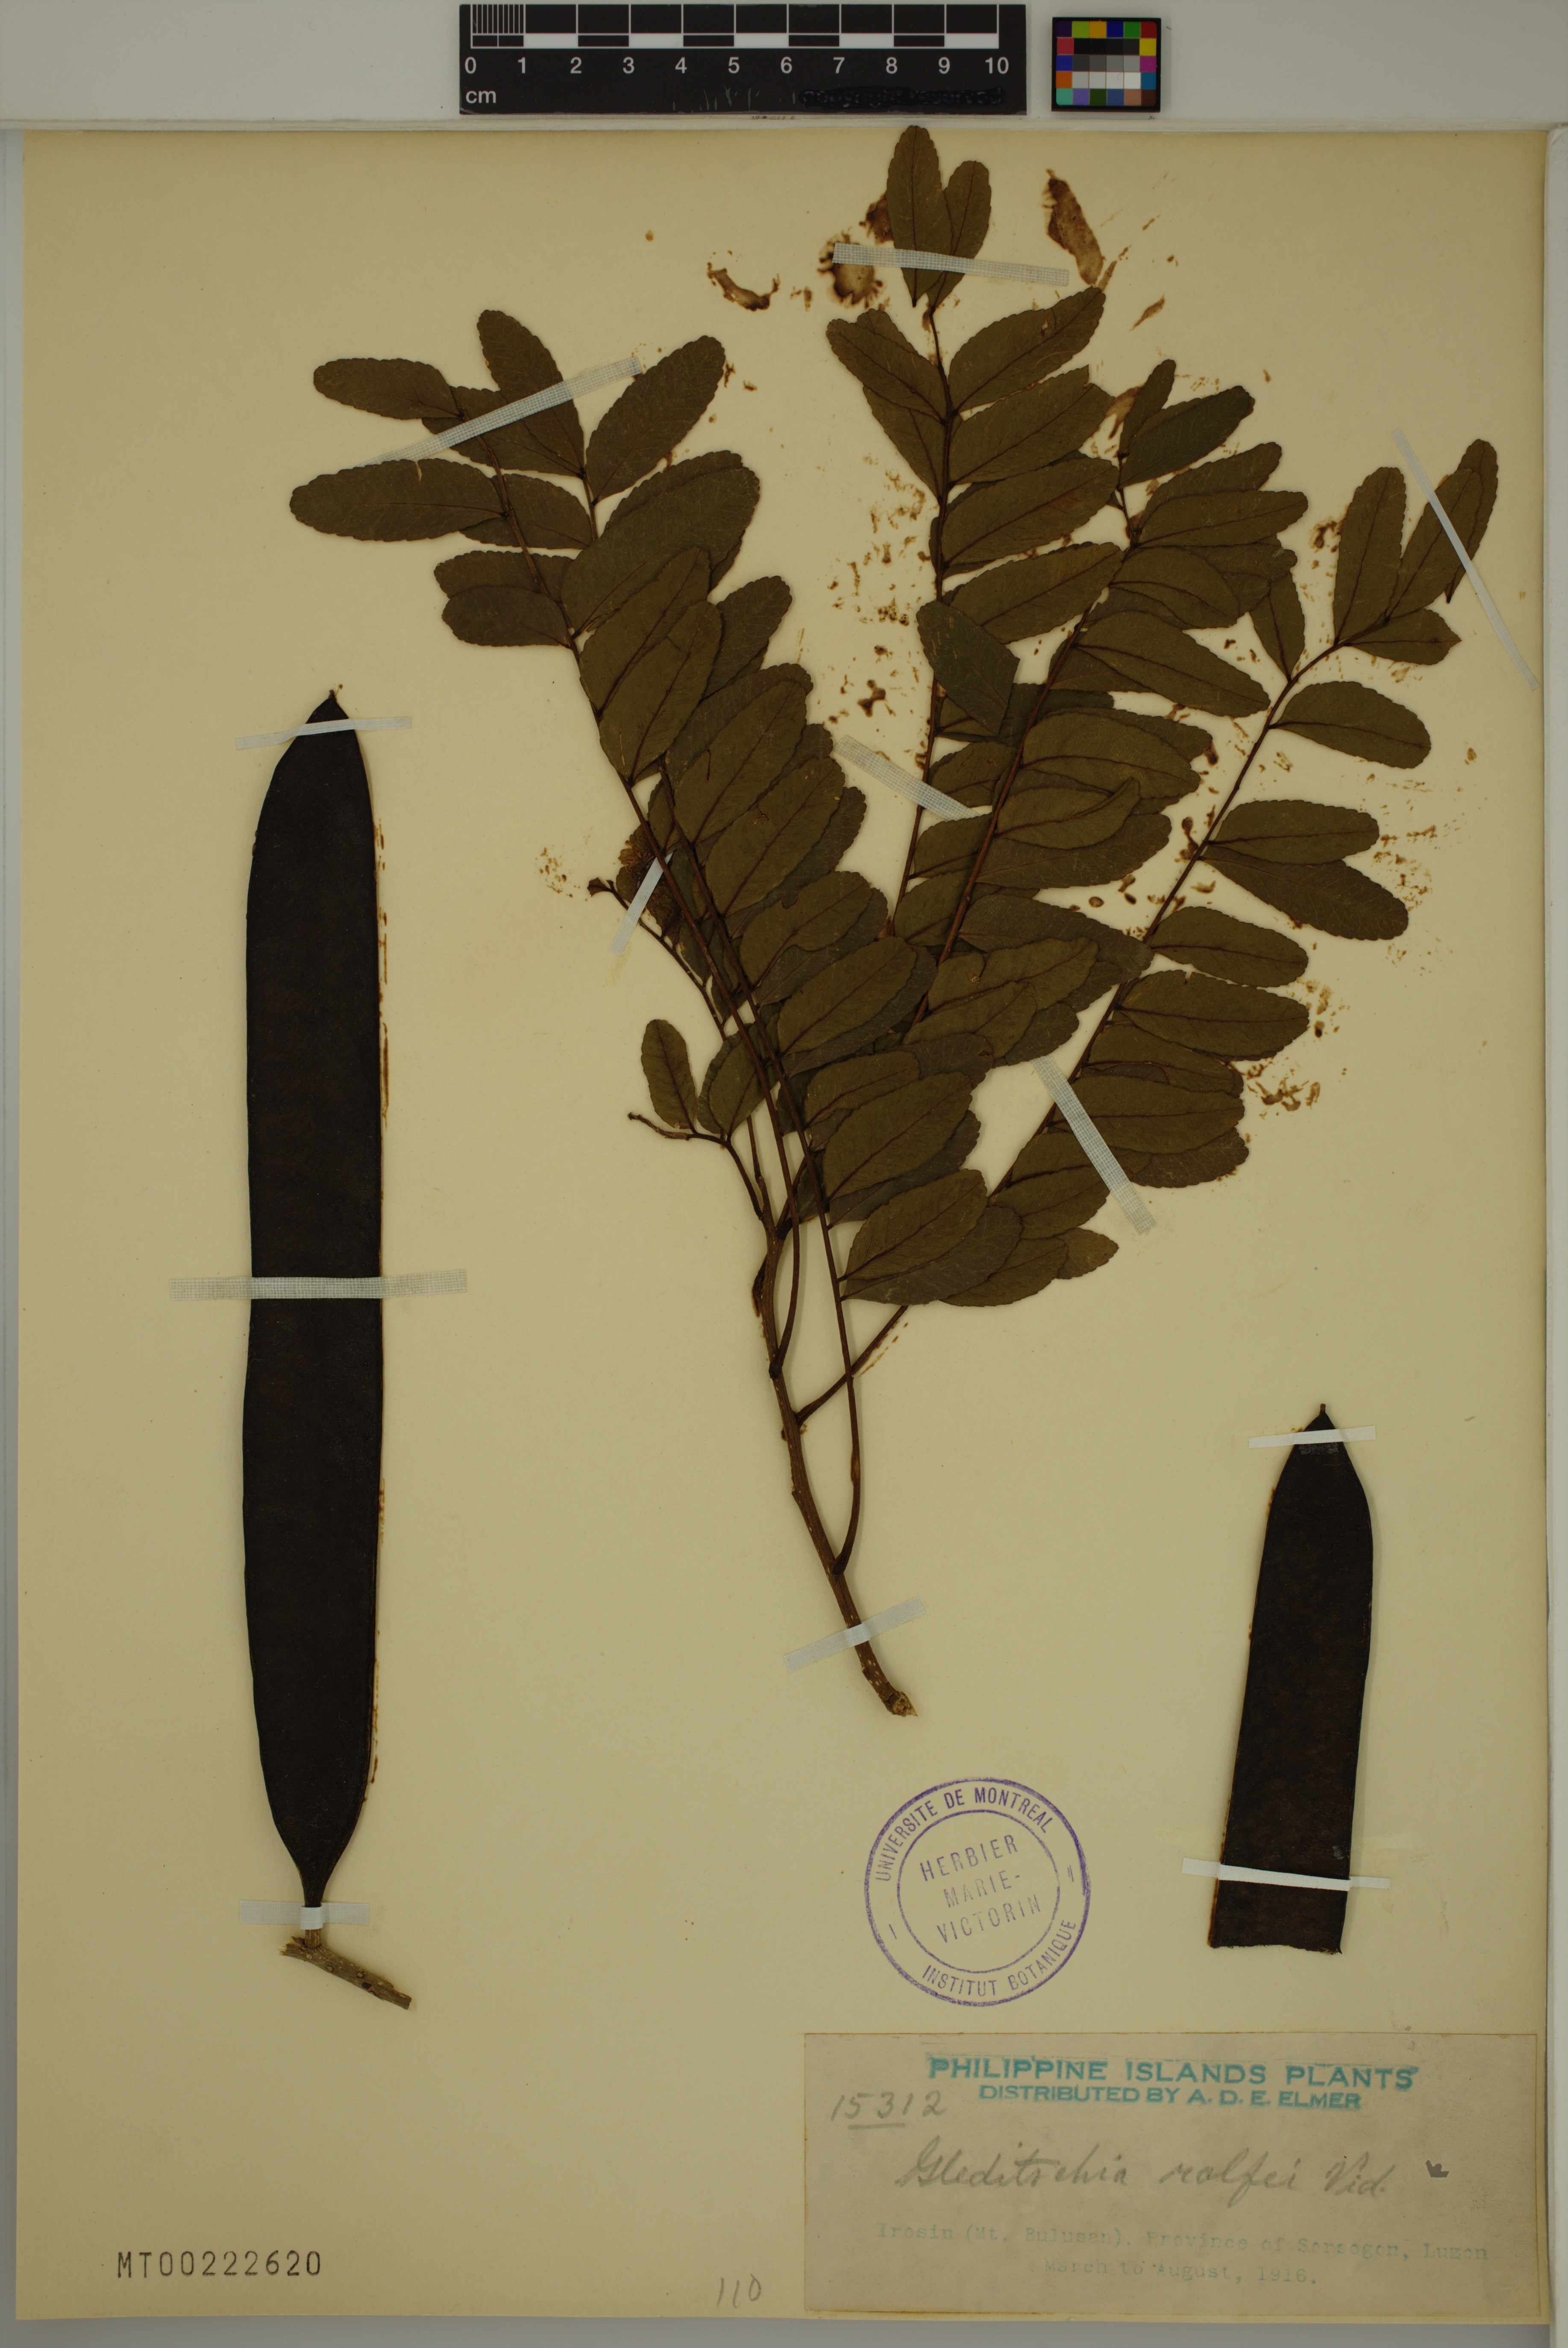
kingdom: Plantae
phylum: Tracheophyta
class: Magnoliopsida
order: Fabales
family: Fabaceae
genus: Gleditsia
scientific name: Gleditsia rolfei
